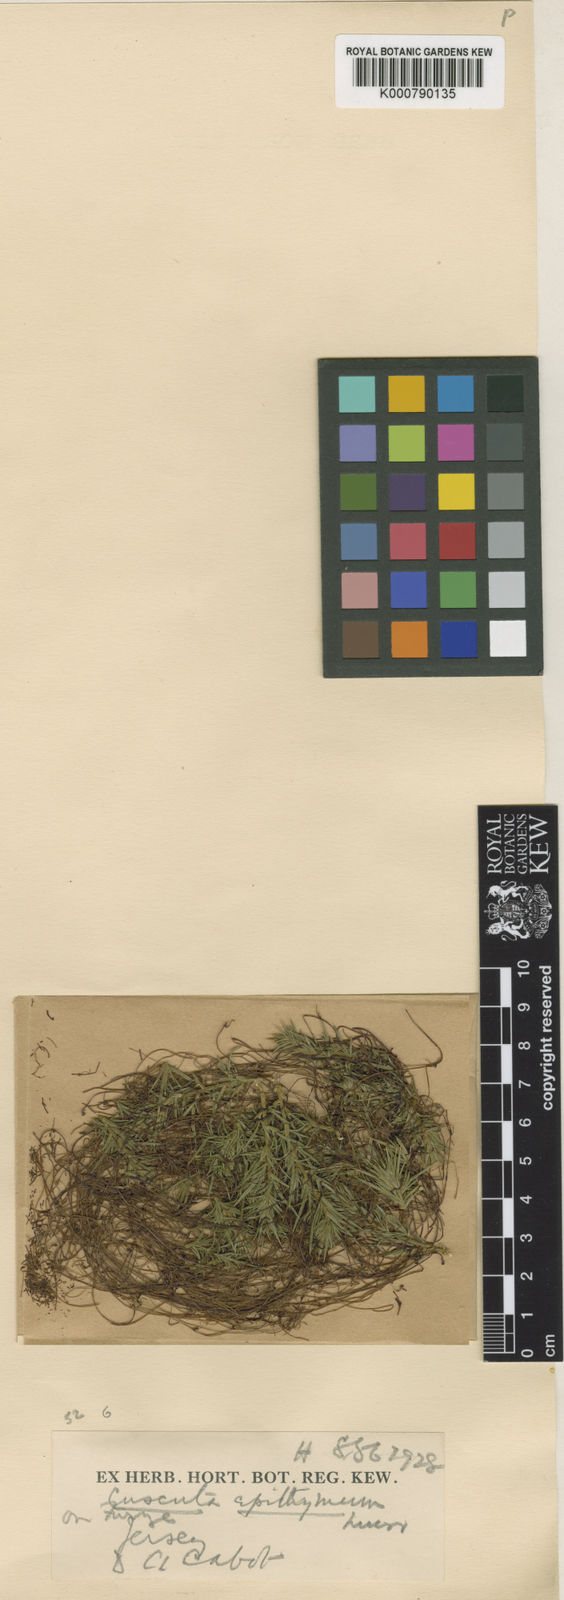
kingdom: Plantae
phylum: Tracheophyta
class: Magnoliopsida
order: Solanales
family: Convolvulaceae
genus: Cuscuta
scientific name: Cuscuta epithymum
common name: Clover dodder
